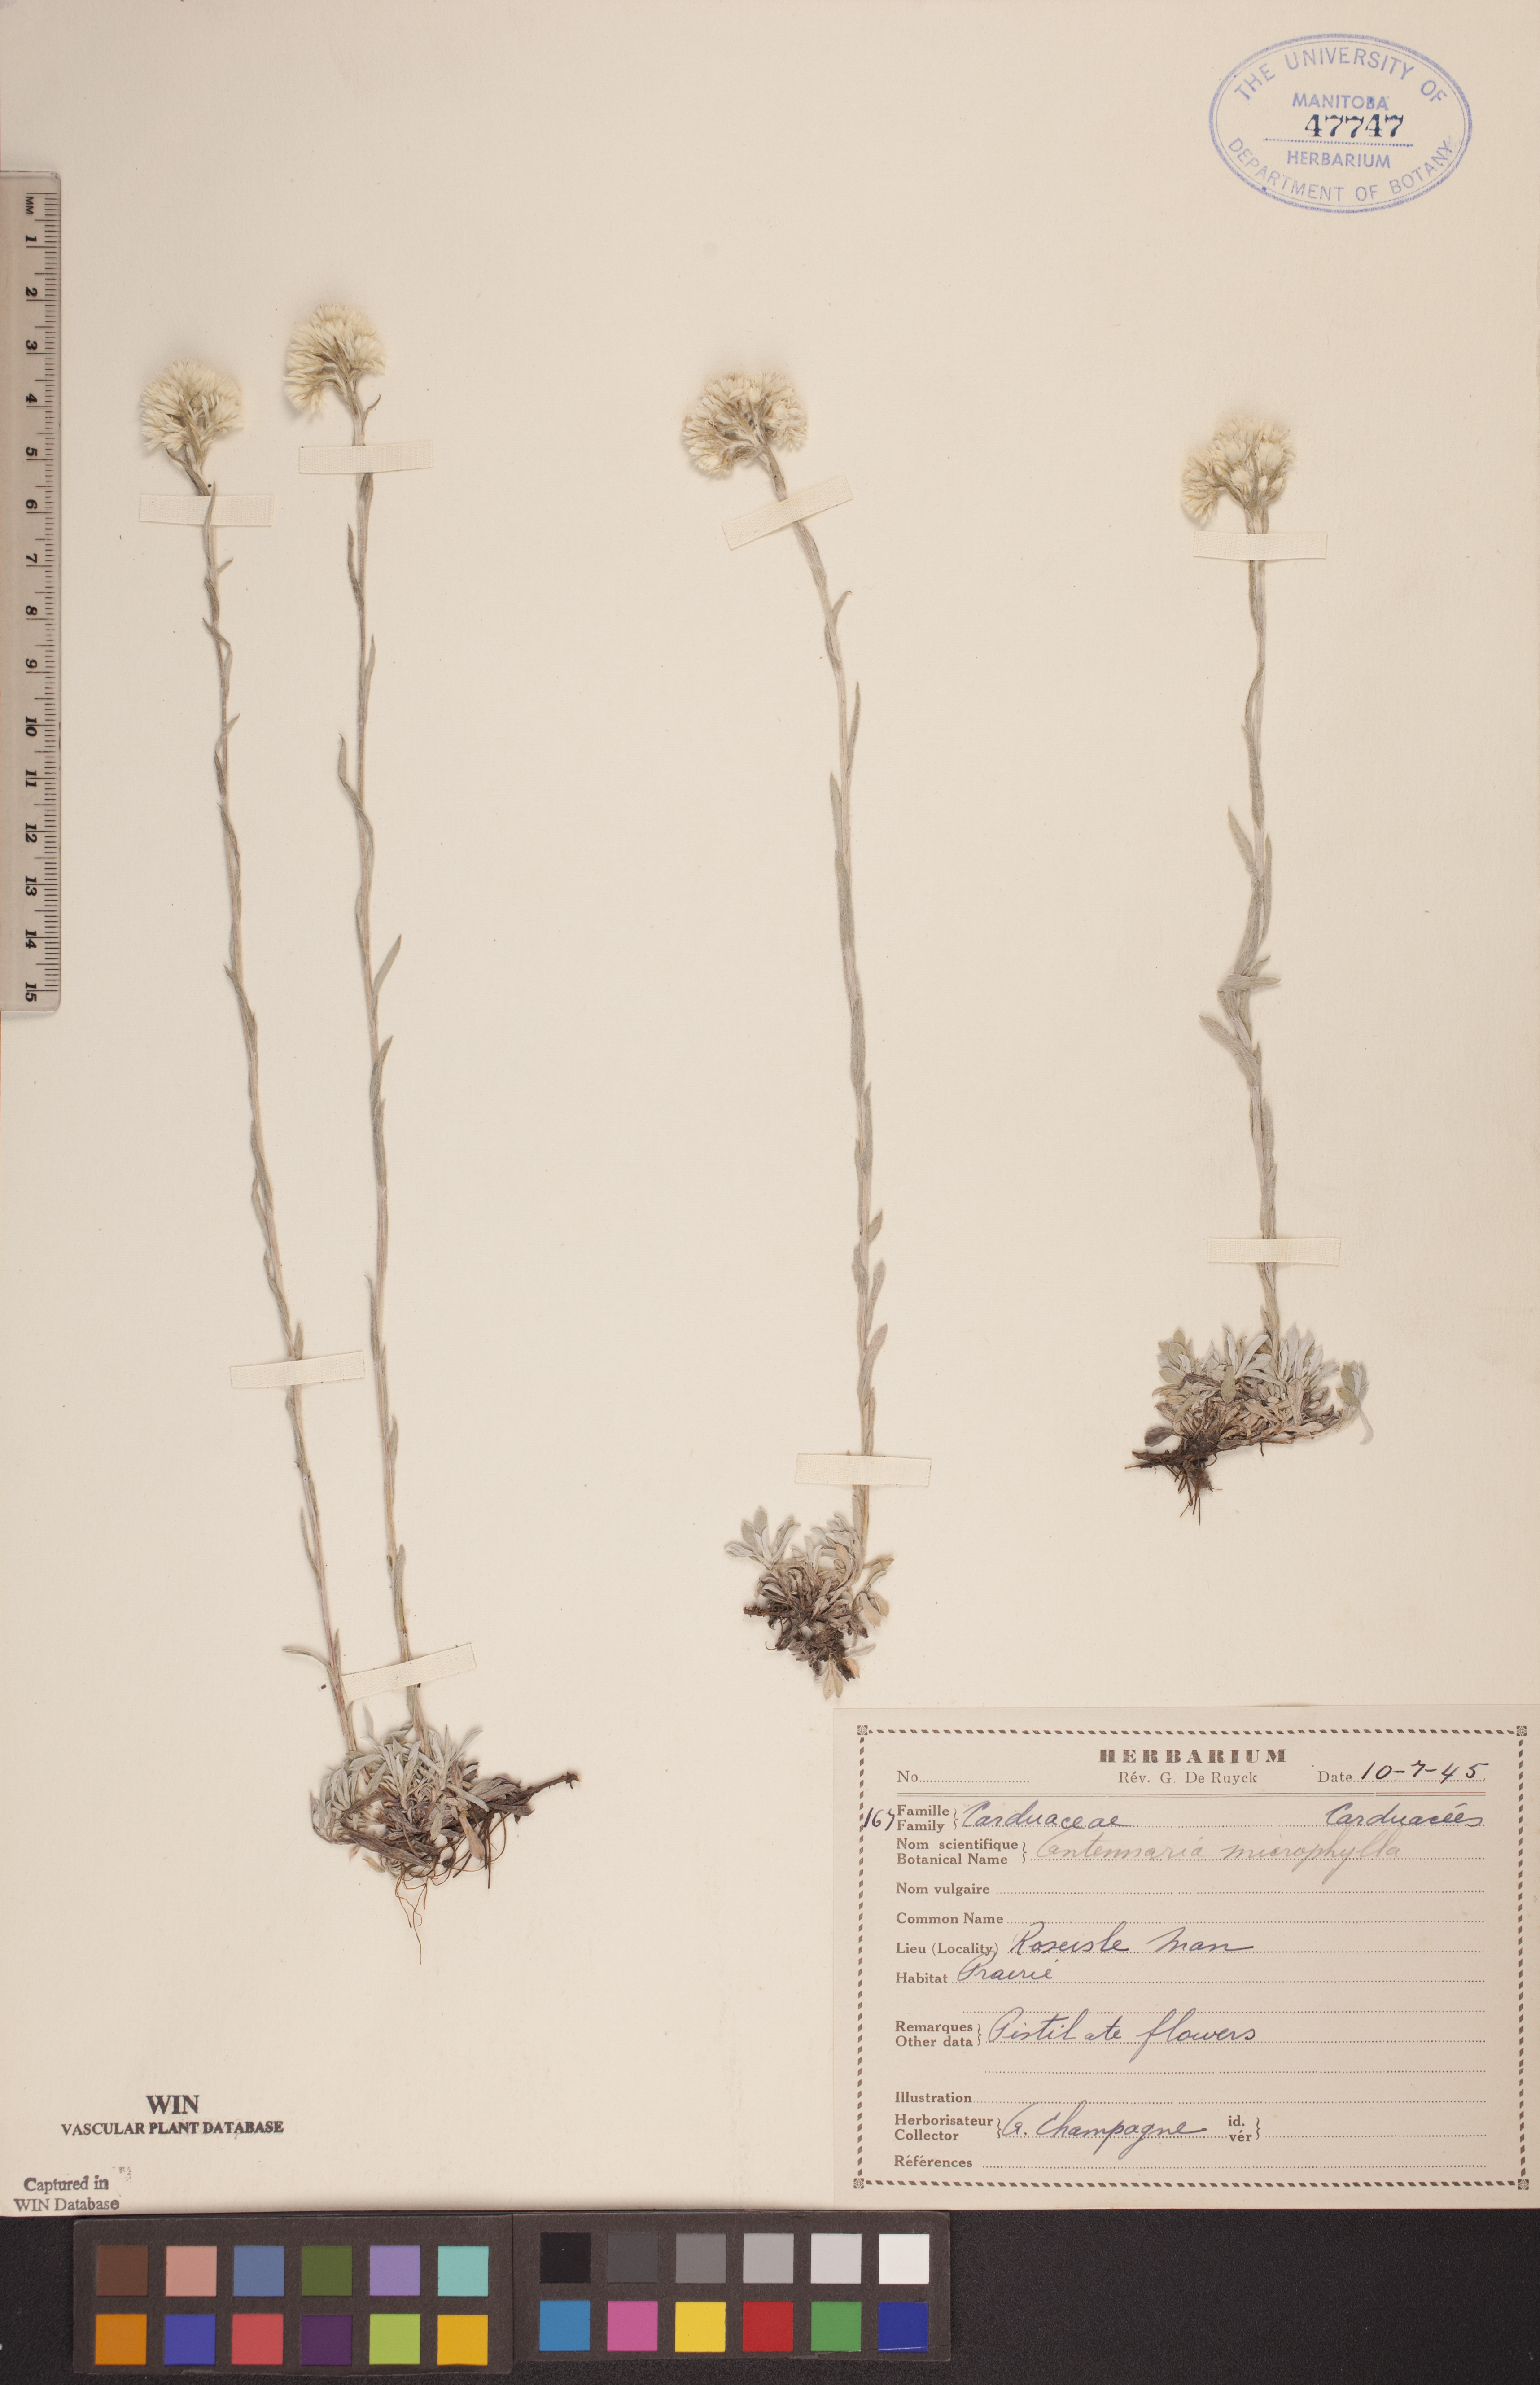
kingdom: Plantae
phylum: Tracheophyta
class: Magnoliopsida
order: Asterales
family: Asteraceae
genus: Antennaria
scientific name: Antennaria microphylla
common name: Littleleaf pussytoes
